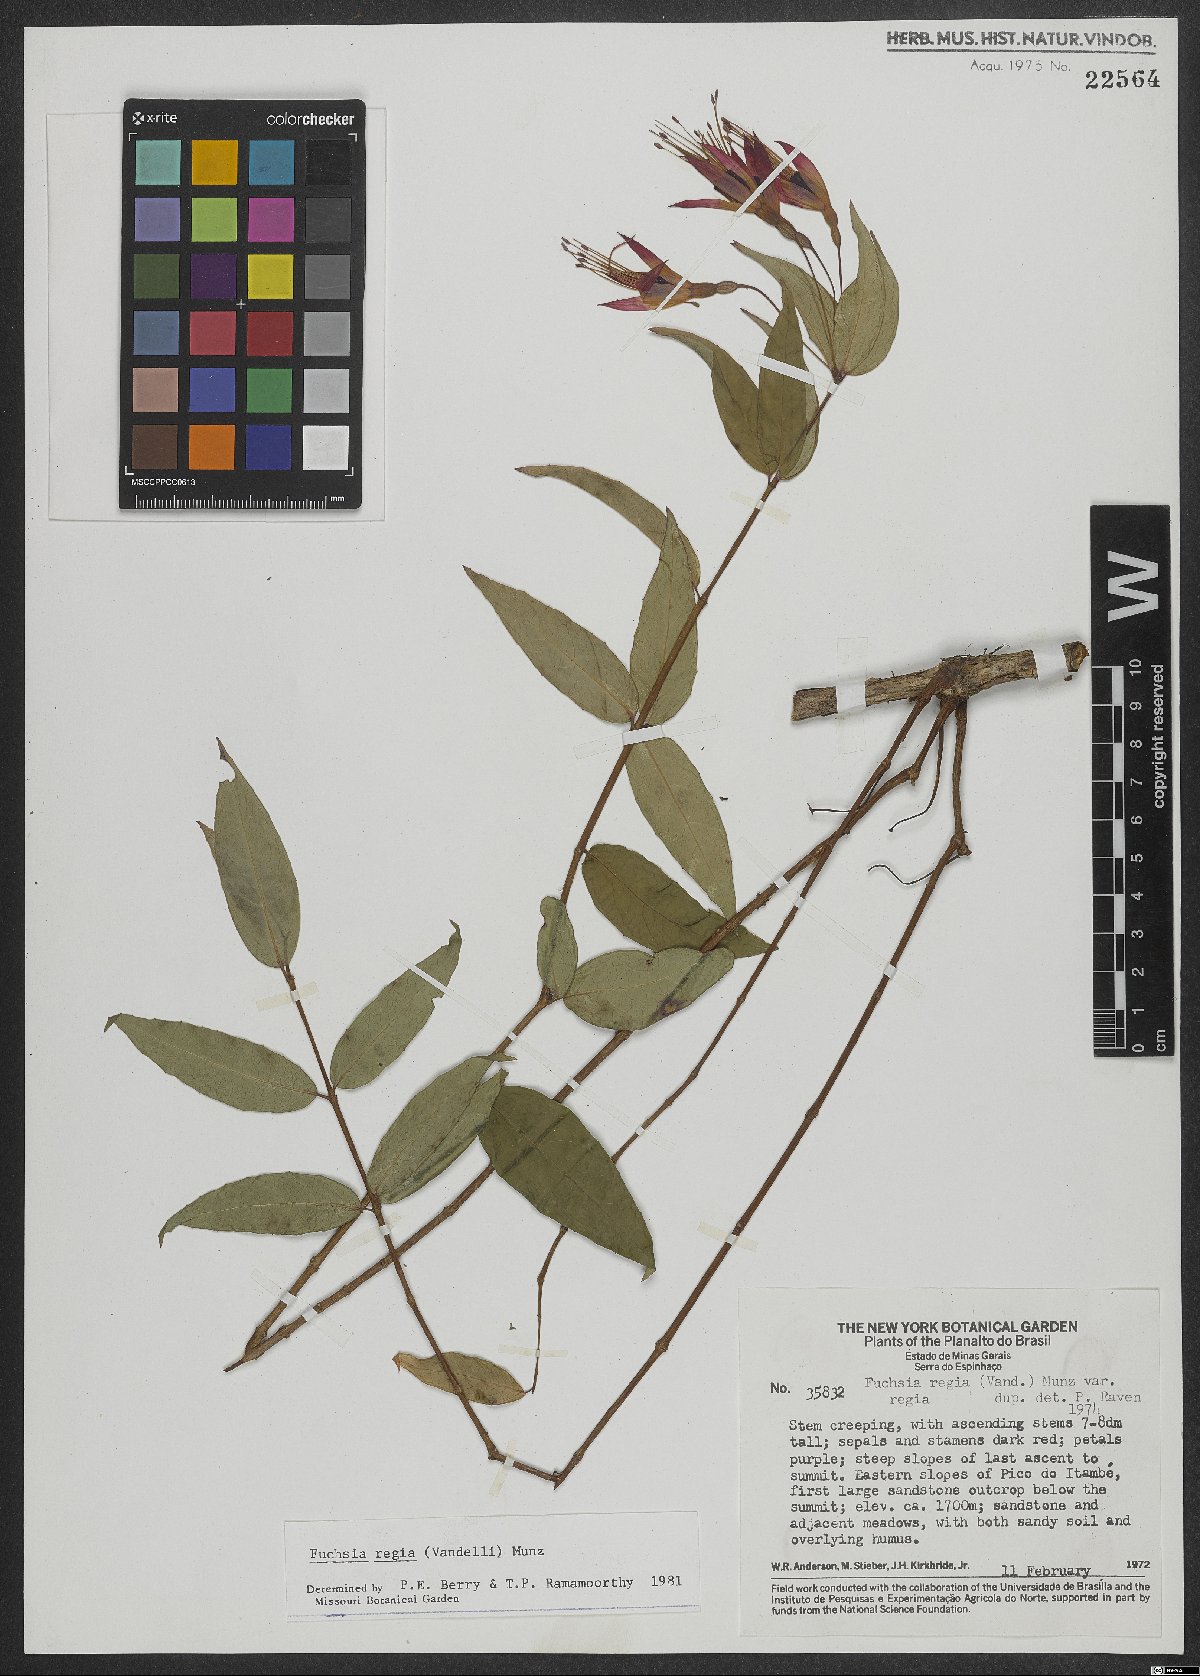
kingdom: Plantae
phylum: Tracheophyta
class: Magnoliopsida
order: Myrtales
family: Onagraceae
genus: Fuchsia
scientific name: Fuchsia regia
